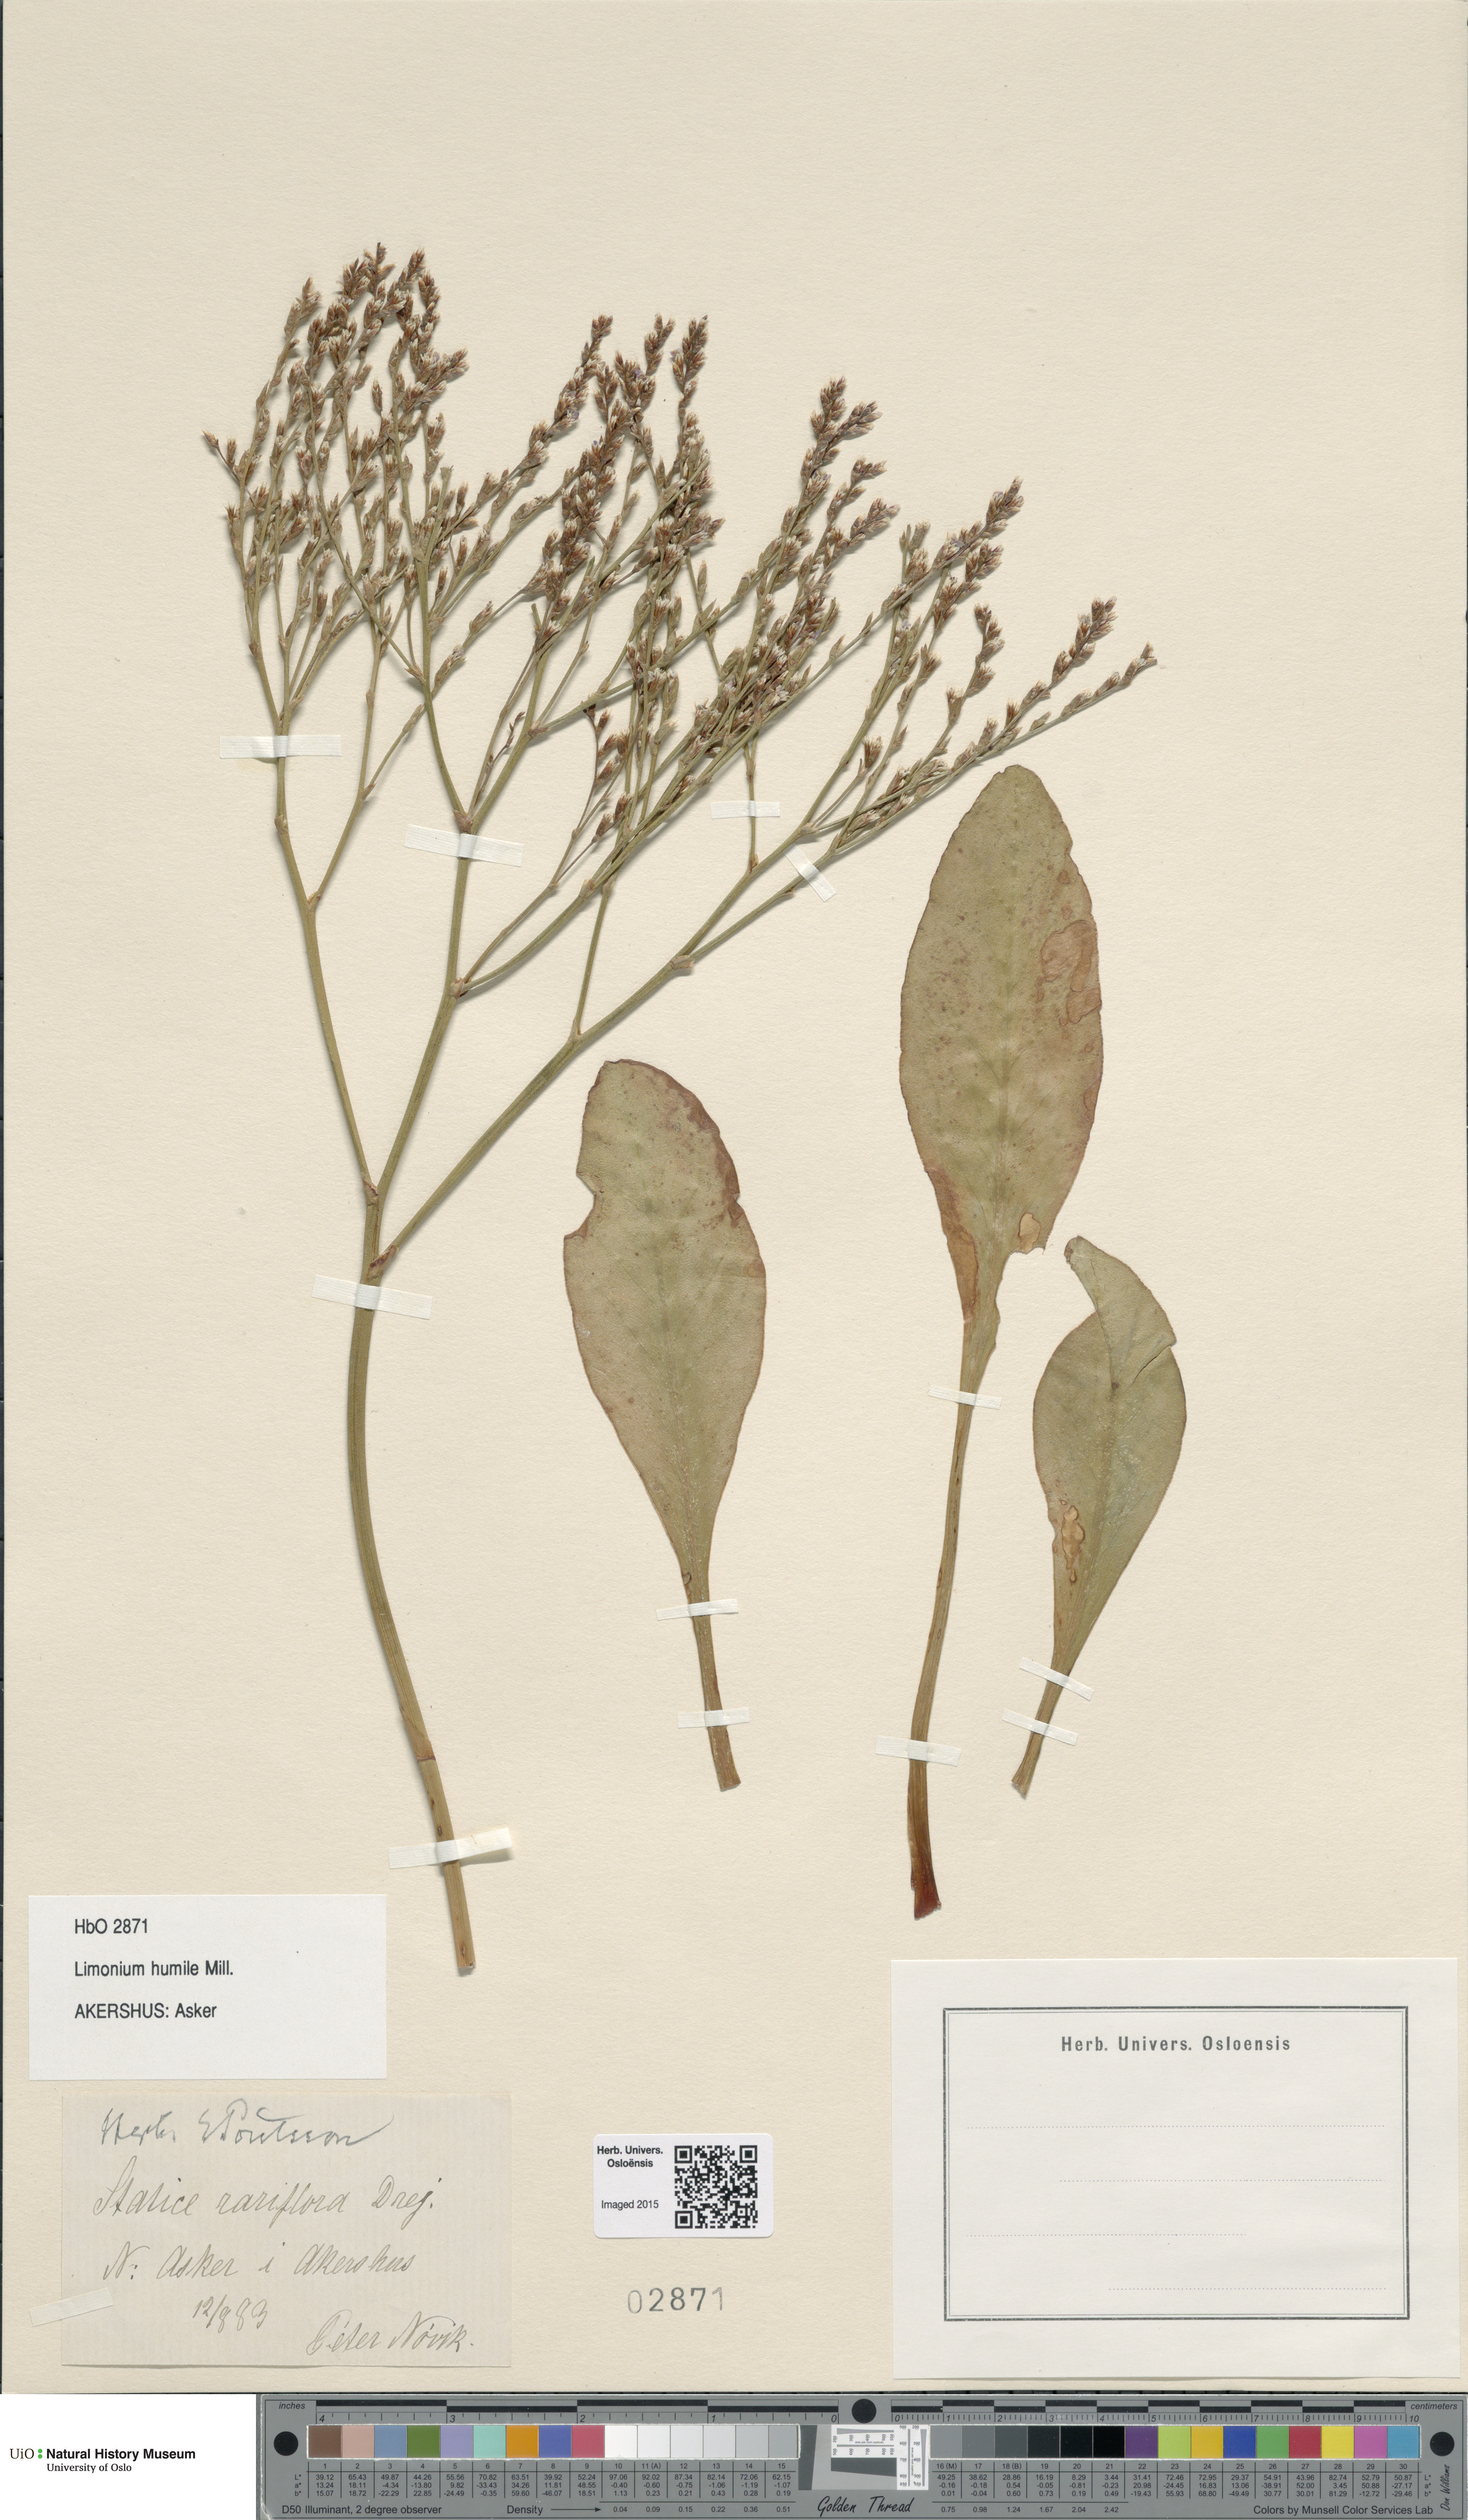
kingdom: Plantae
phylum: Tracheophyta
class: Magnoliopsida
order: Caryophyllales
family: Plumbaginaceae
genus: Limonium
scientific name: Limonium humile
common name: Lax-flowered sea-lavender
